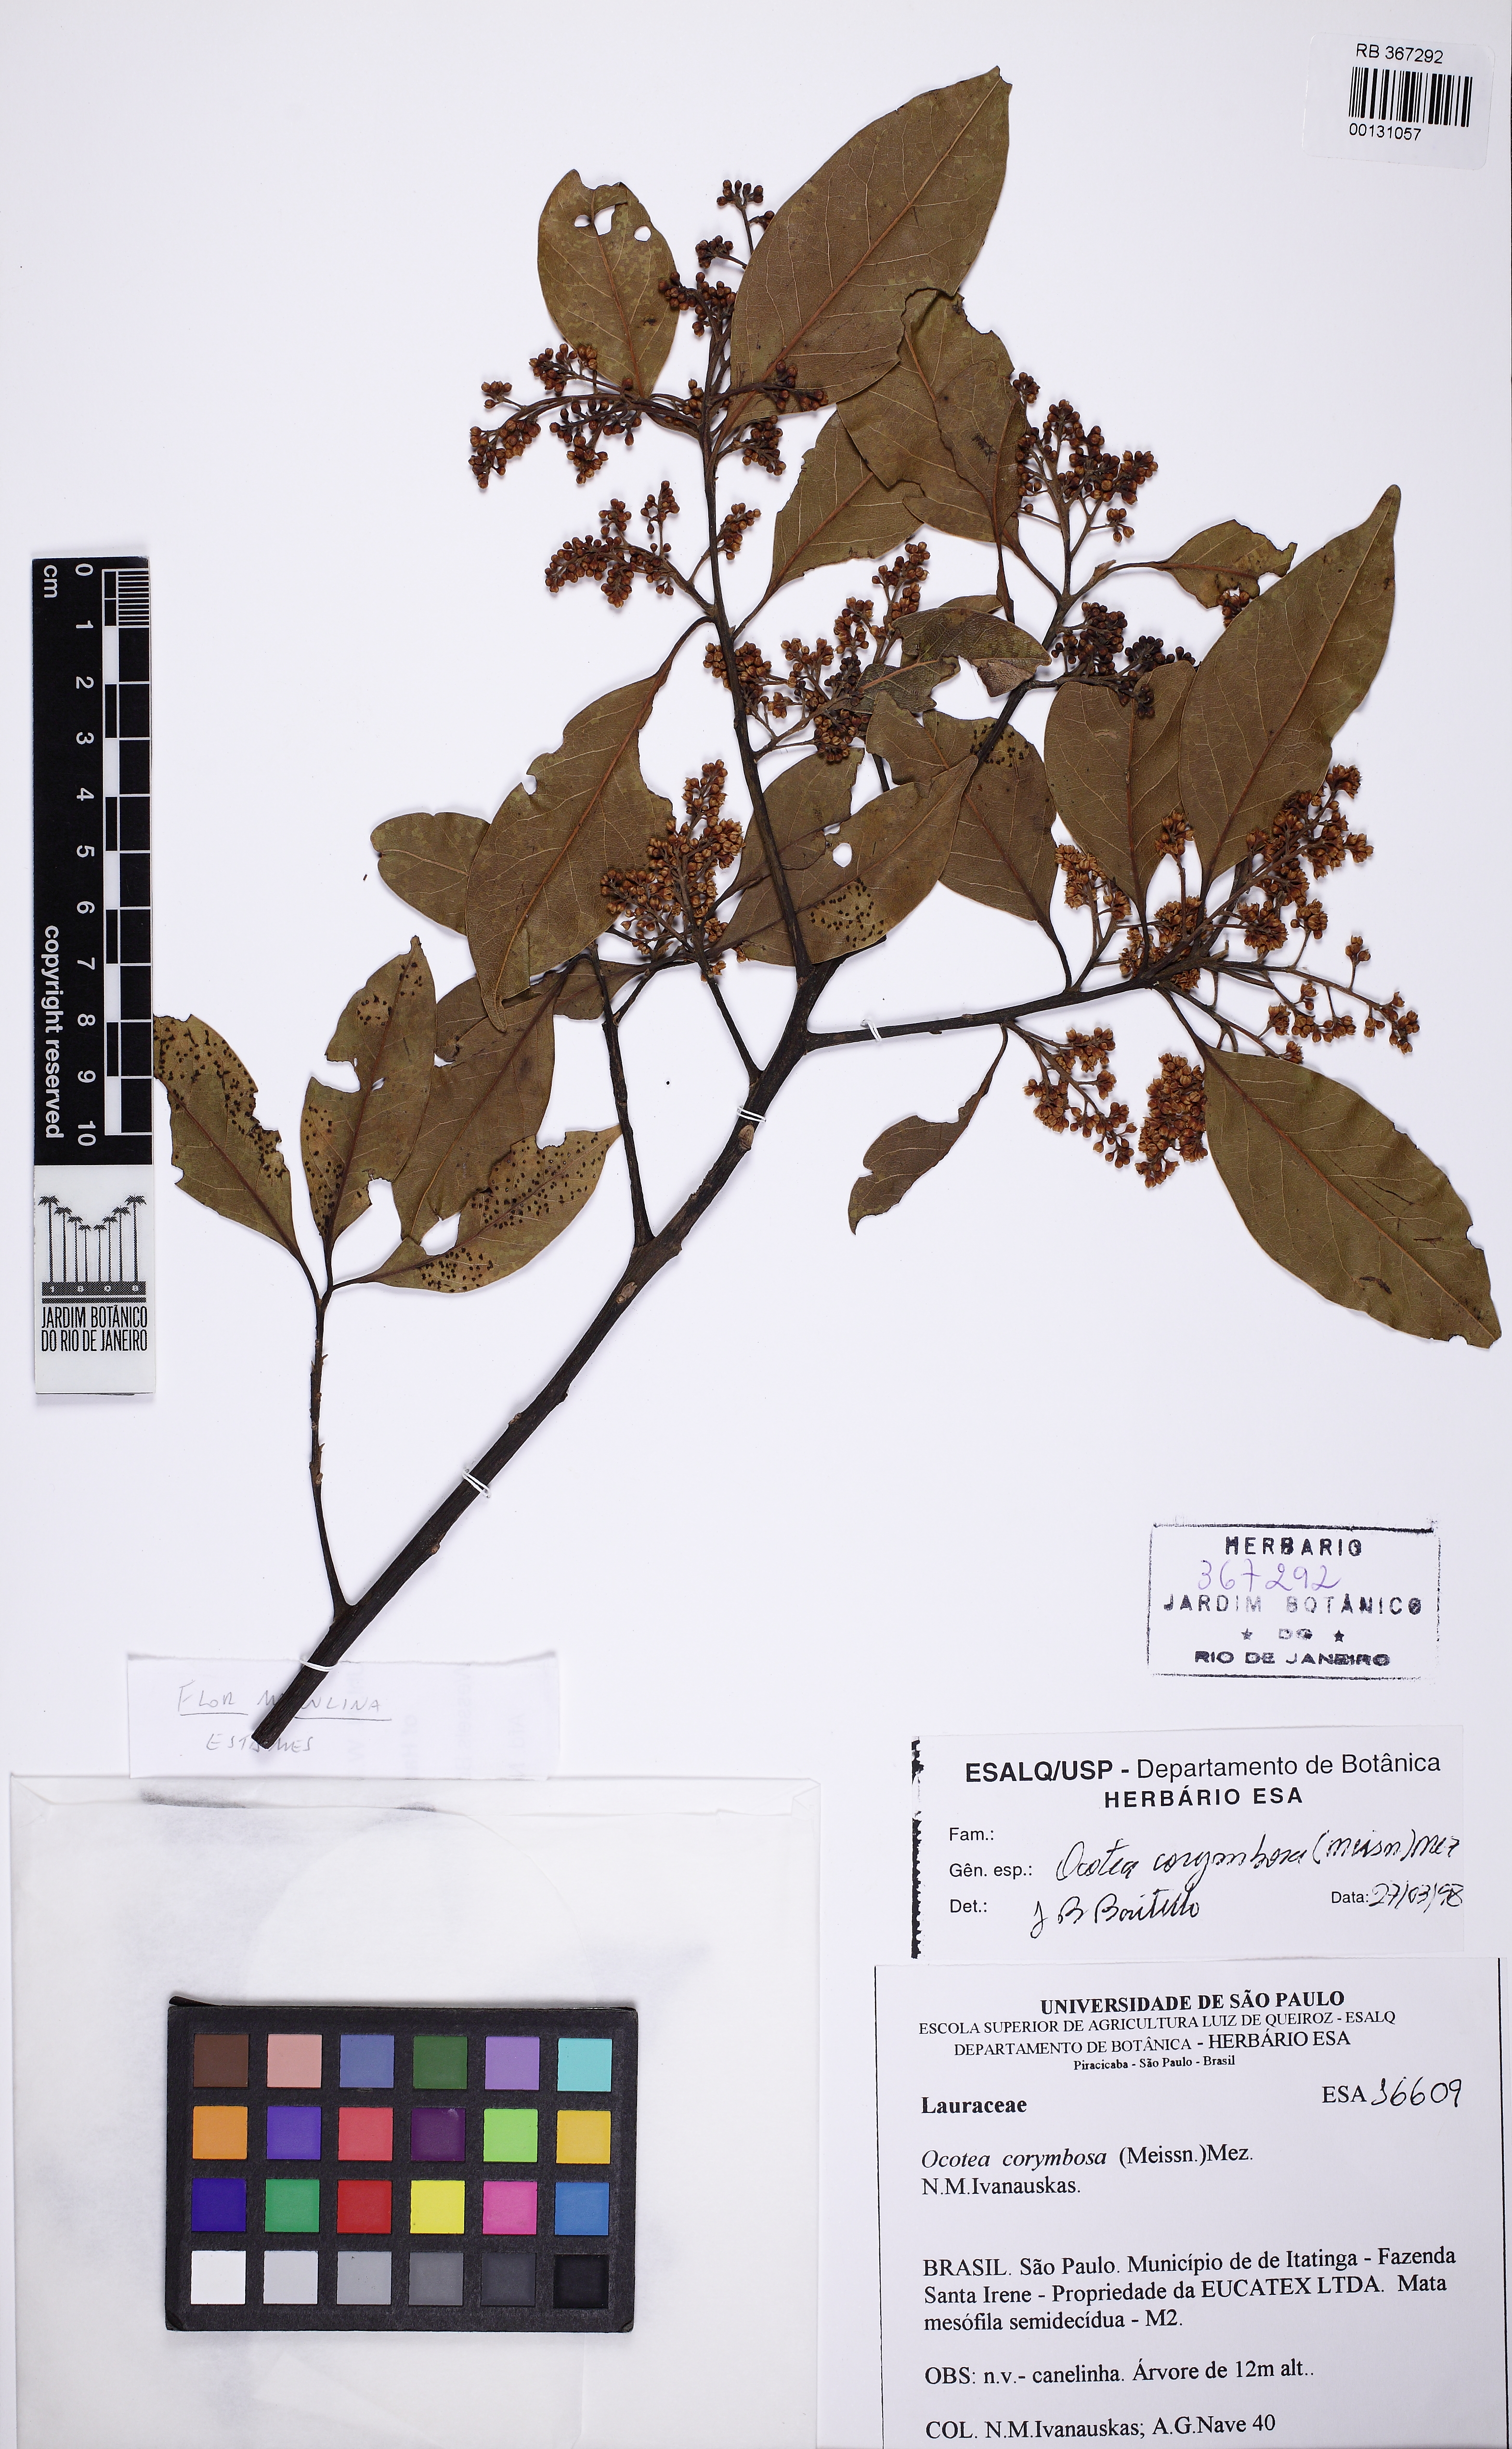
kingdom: Plantae
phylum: Tracheophyta
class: Magnoliopsida
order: Laurales
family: Lauraceae
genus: Mespilodaphne
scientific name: Mespilodaphne corymbosa
